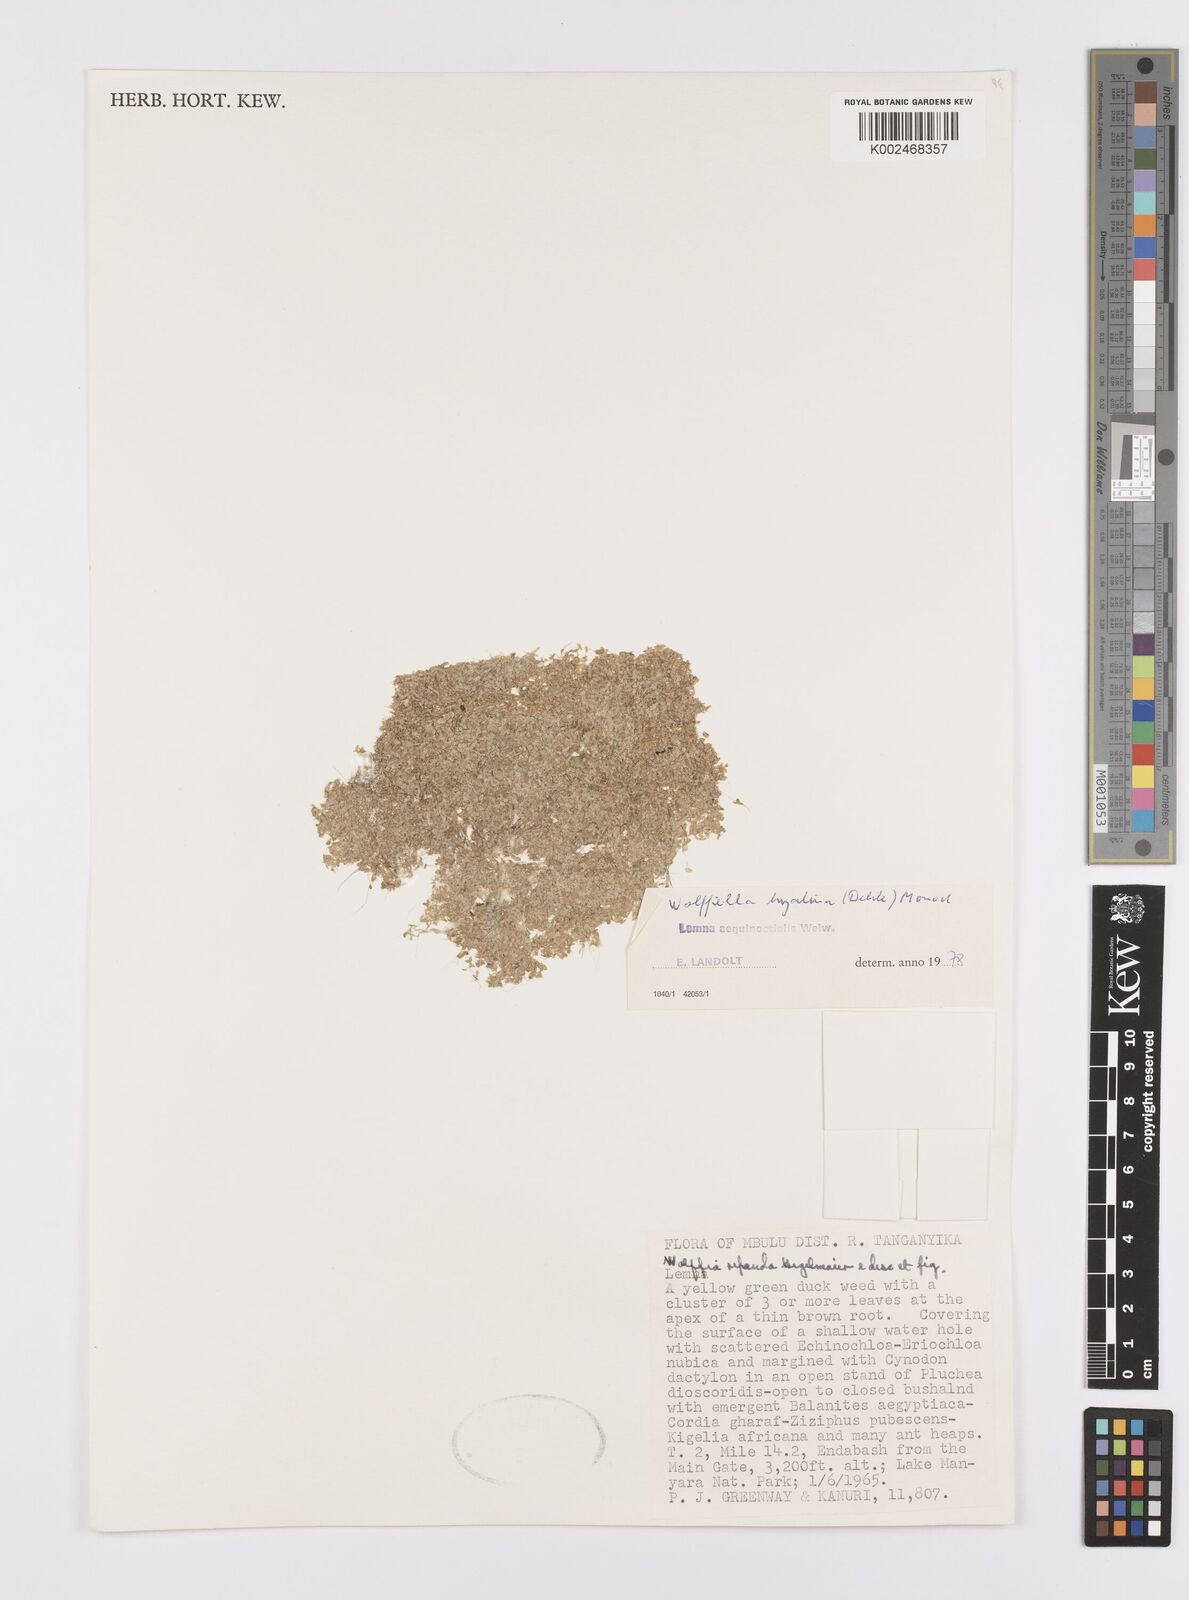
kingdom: Plantae
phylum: Tracheophyta
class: Liliopsida
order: Alismatales
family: Araceae
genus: Wolffiella
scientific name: Wolffiella hyalina
